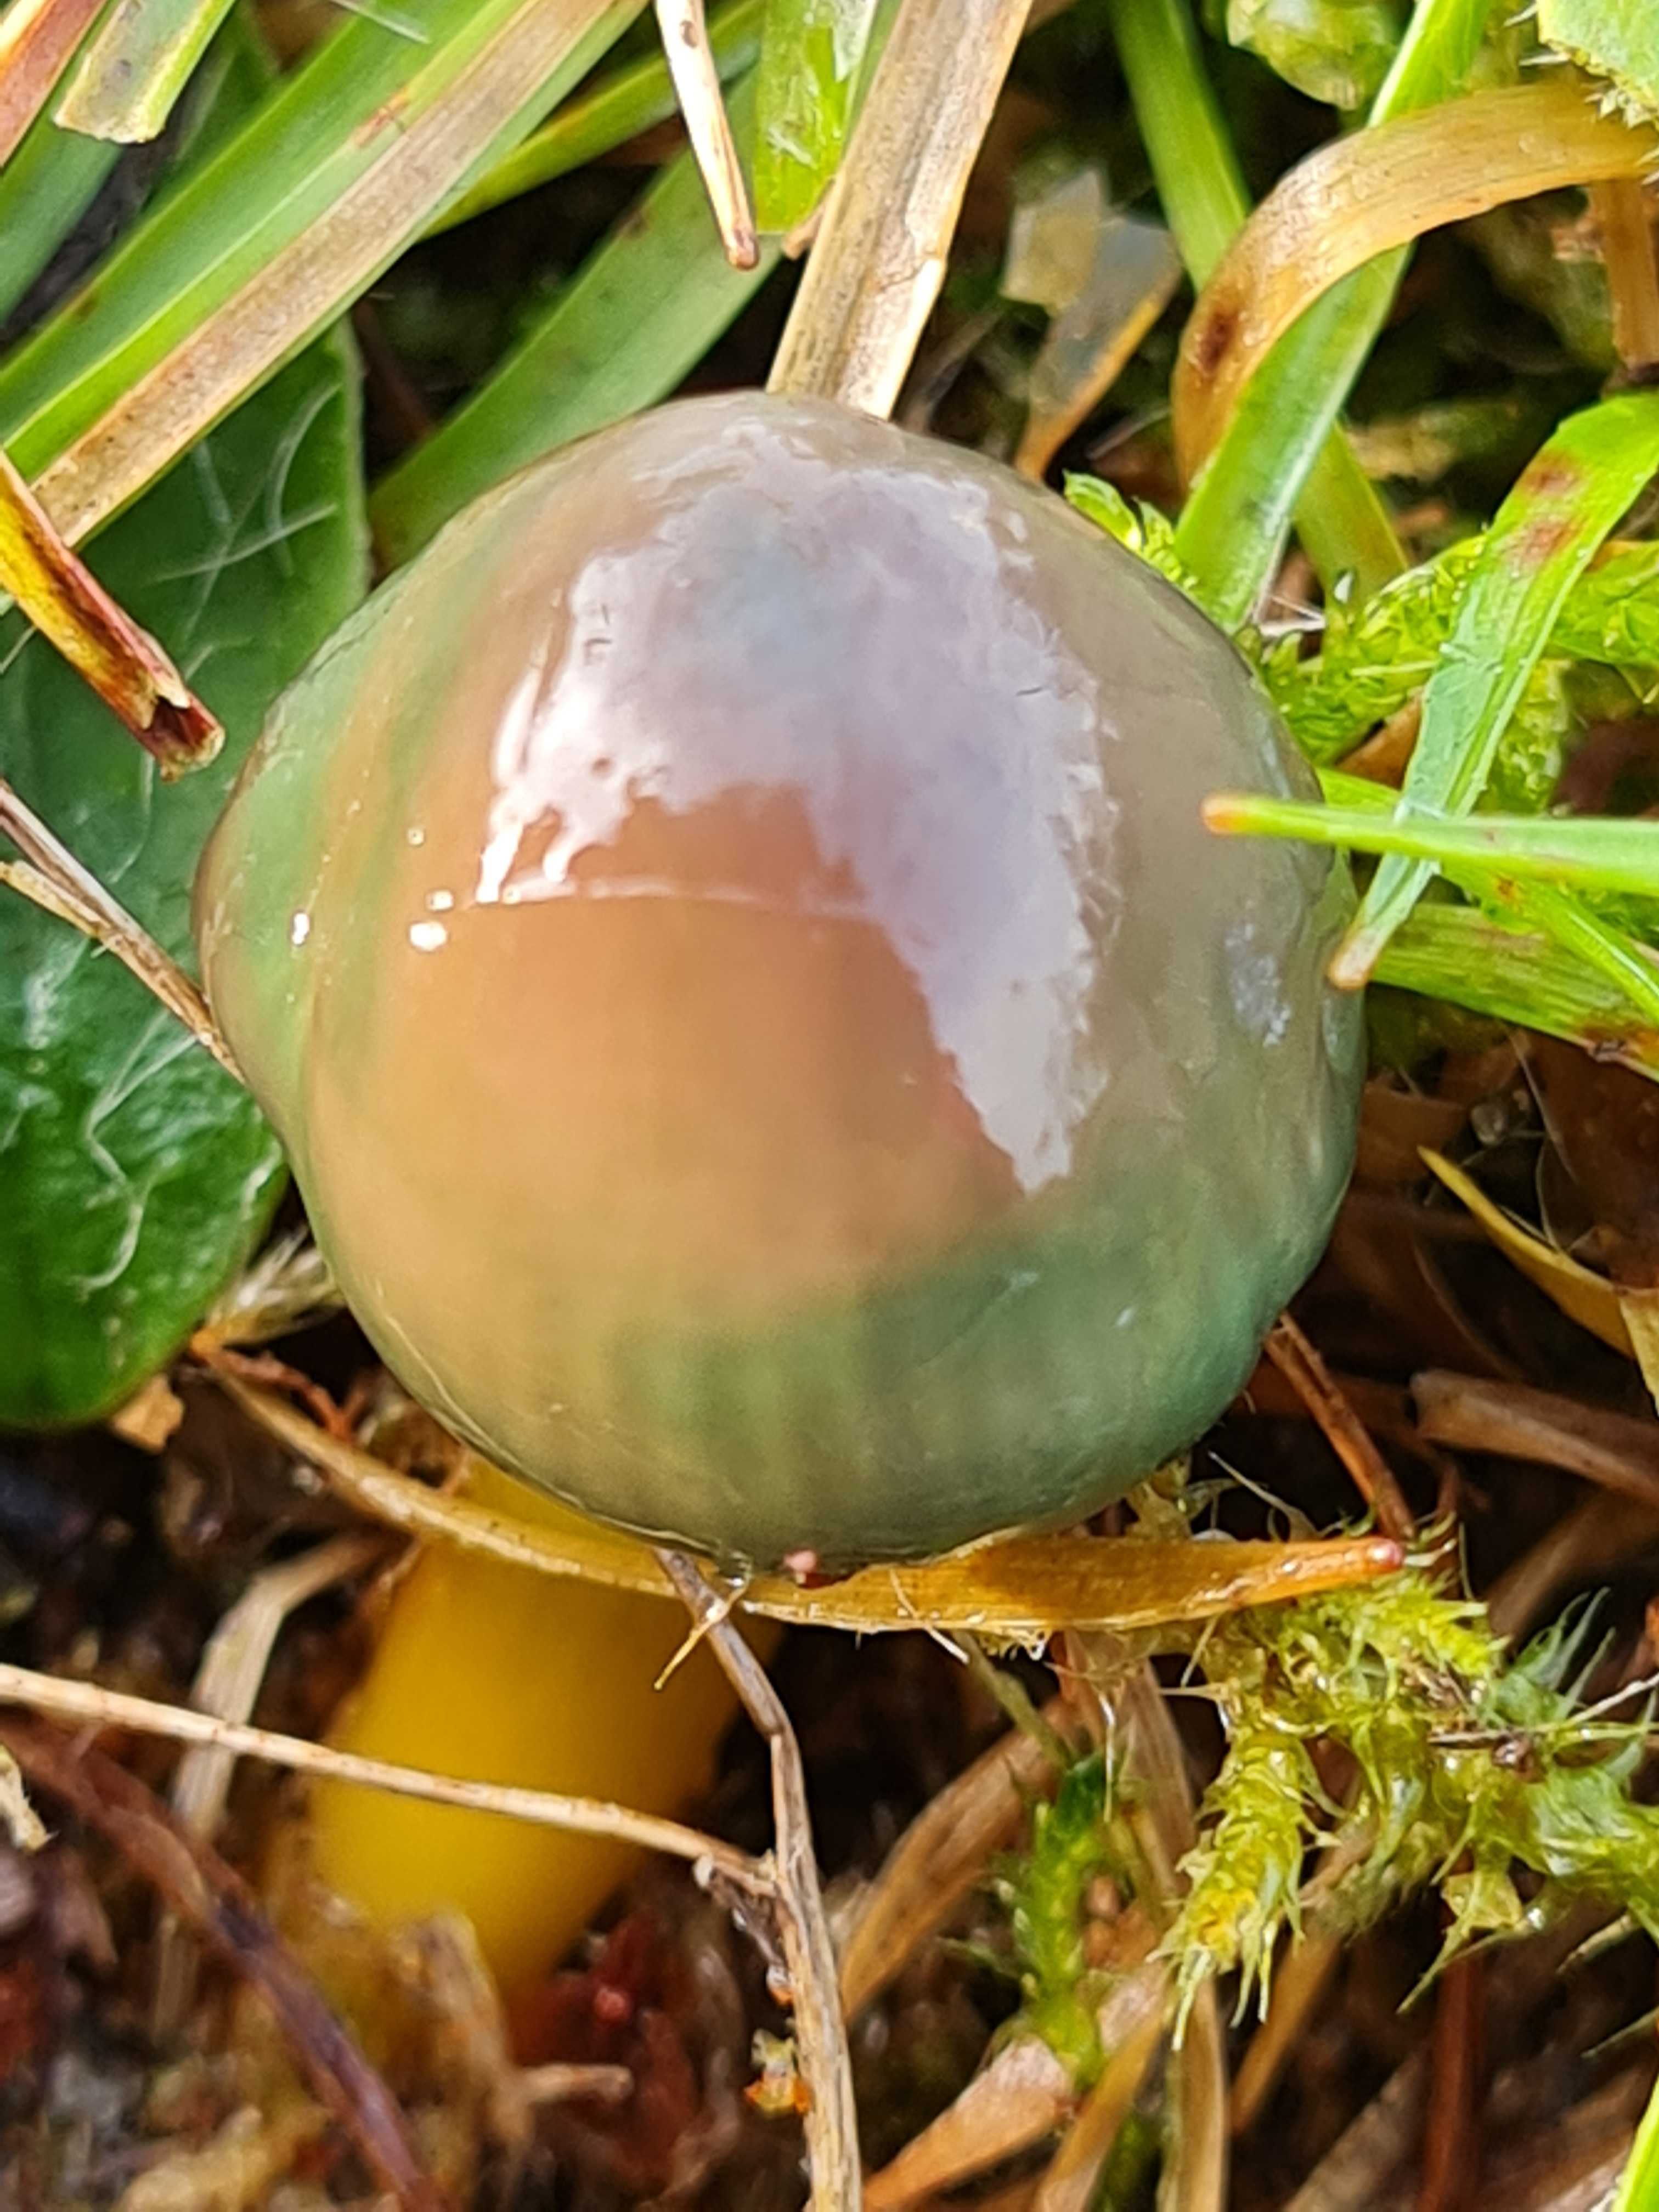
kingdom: Fungi
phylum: Basidiomycota
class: Agaricomycetes
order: Agaricales
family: Hygrophoraceae
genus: Gliophorus
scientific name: Gliophorus psittacinus
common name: papegøje-vokshat
